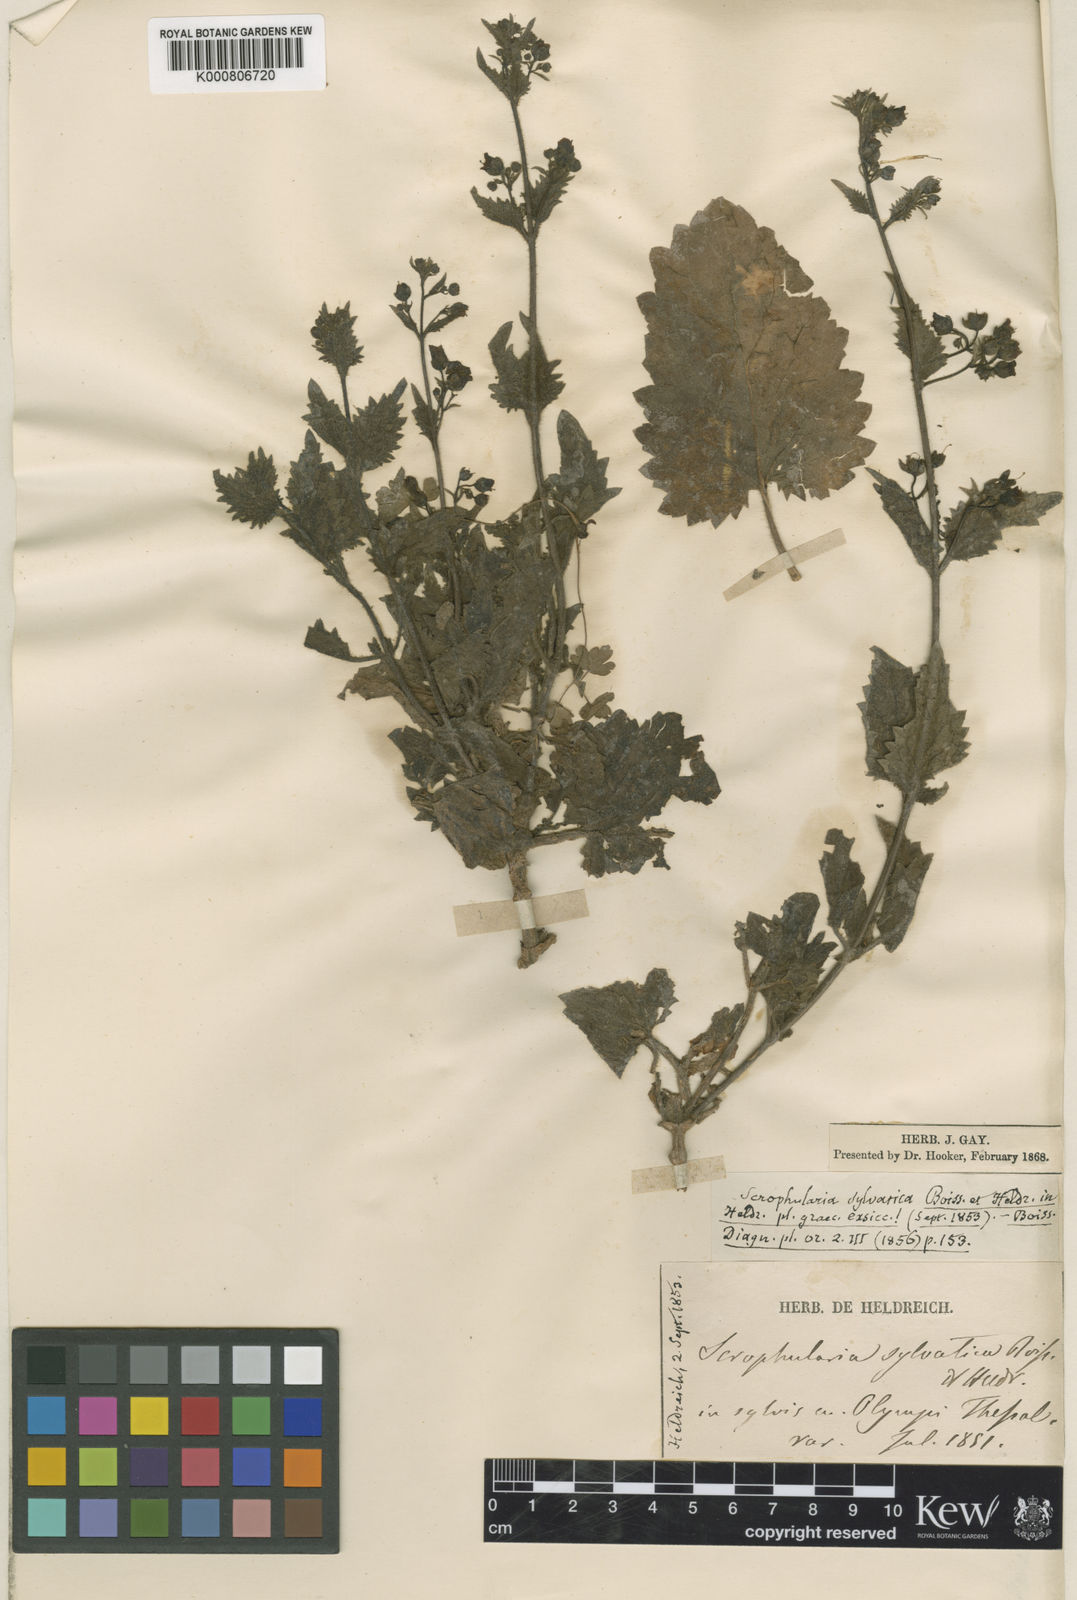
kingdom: Plantae
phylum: Tracheophyta
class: Magnoliopsida
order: Lamiales
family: Scrophulariaceae
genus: Scrophularia
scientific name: Scrophularia aestivalis
